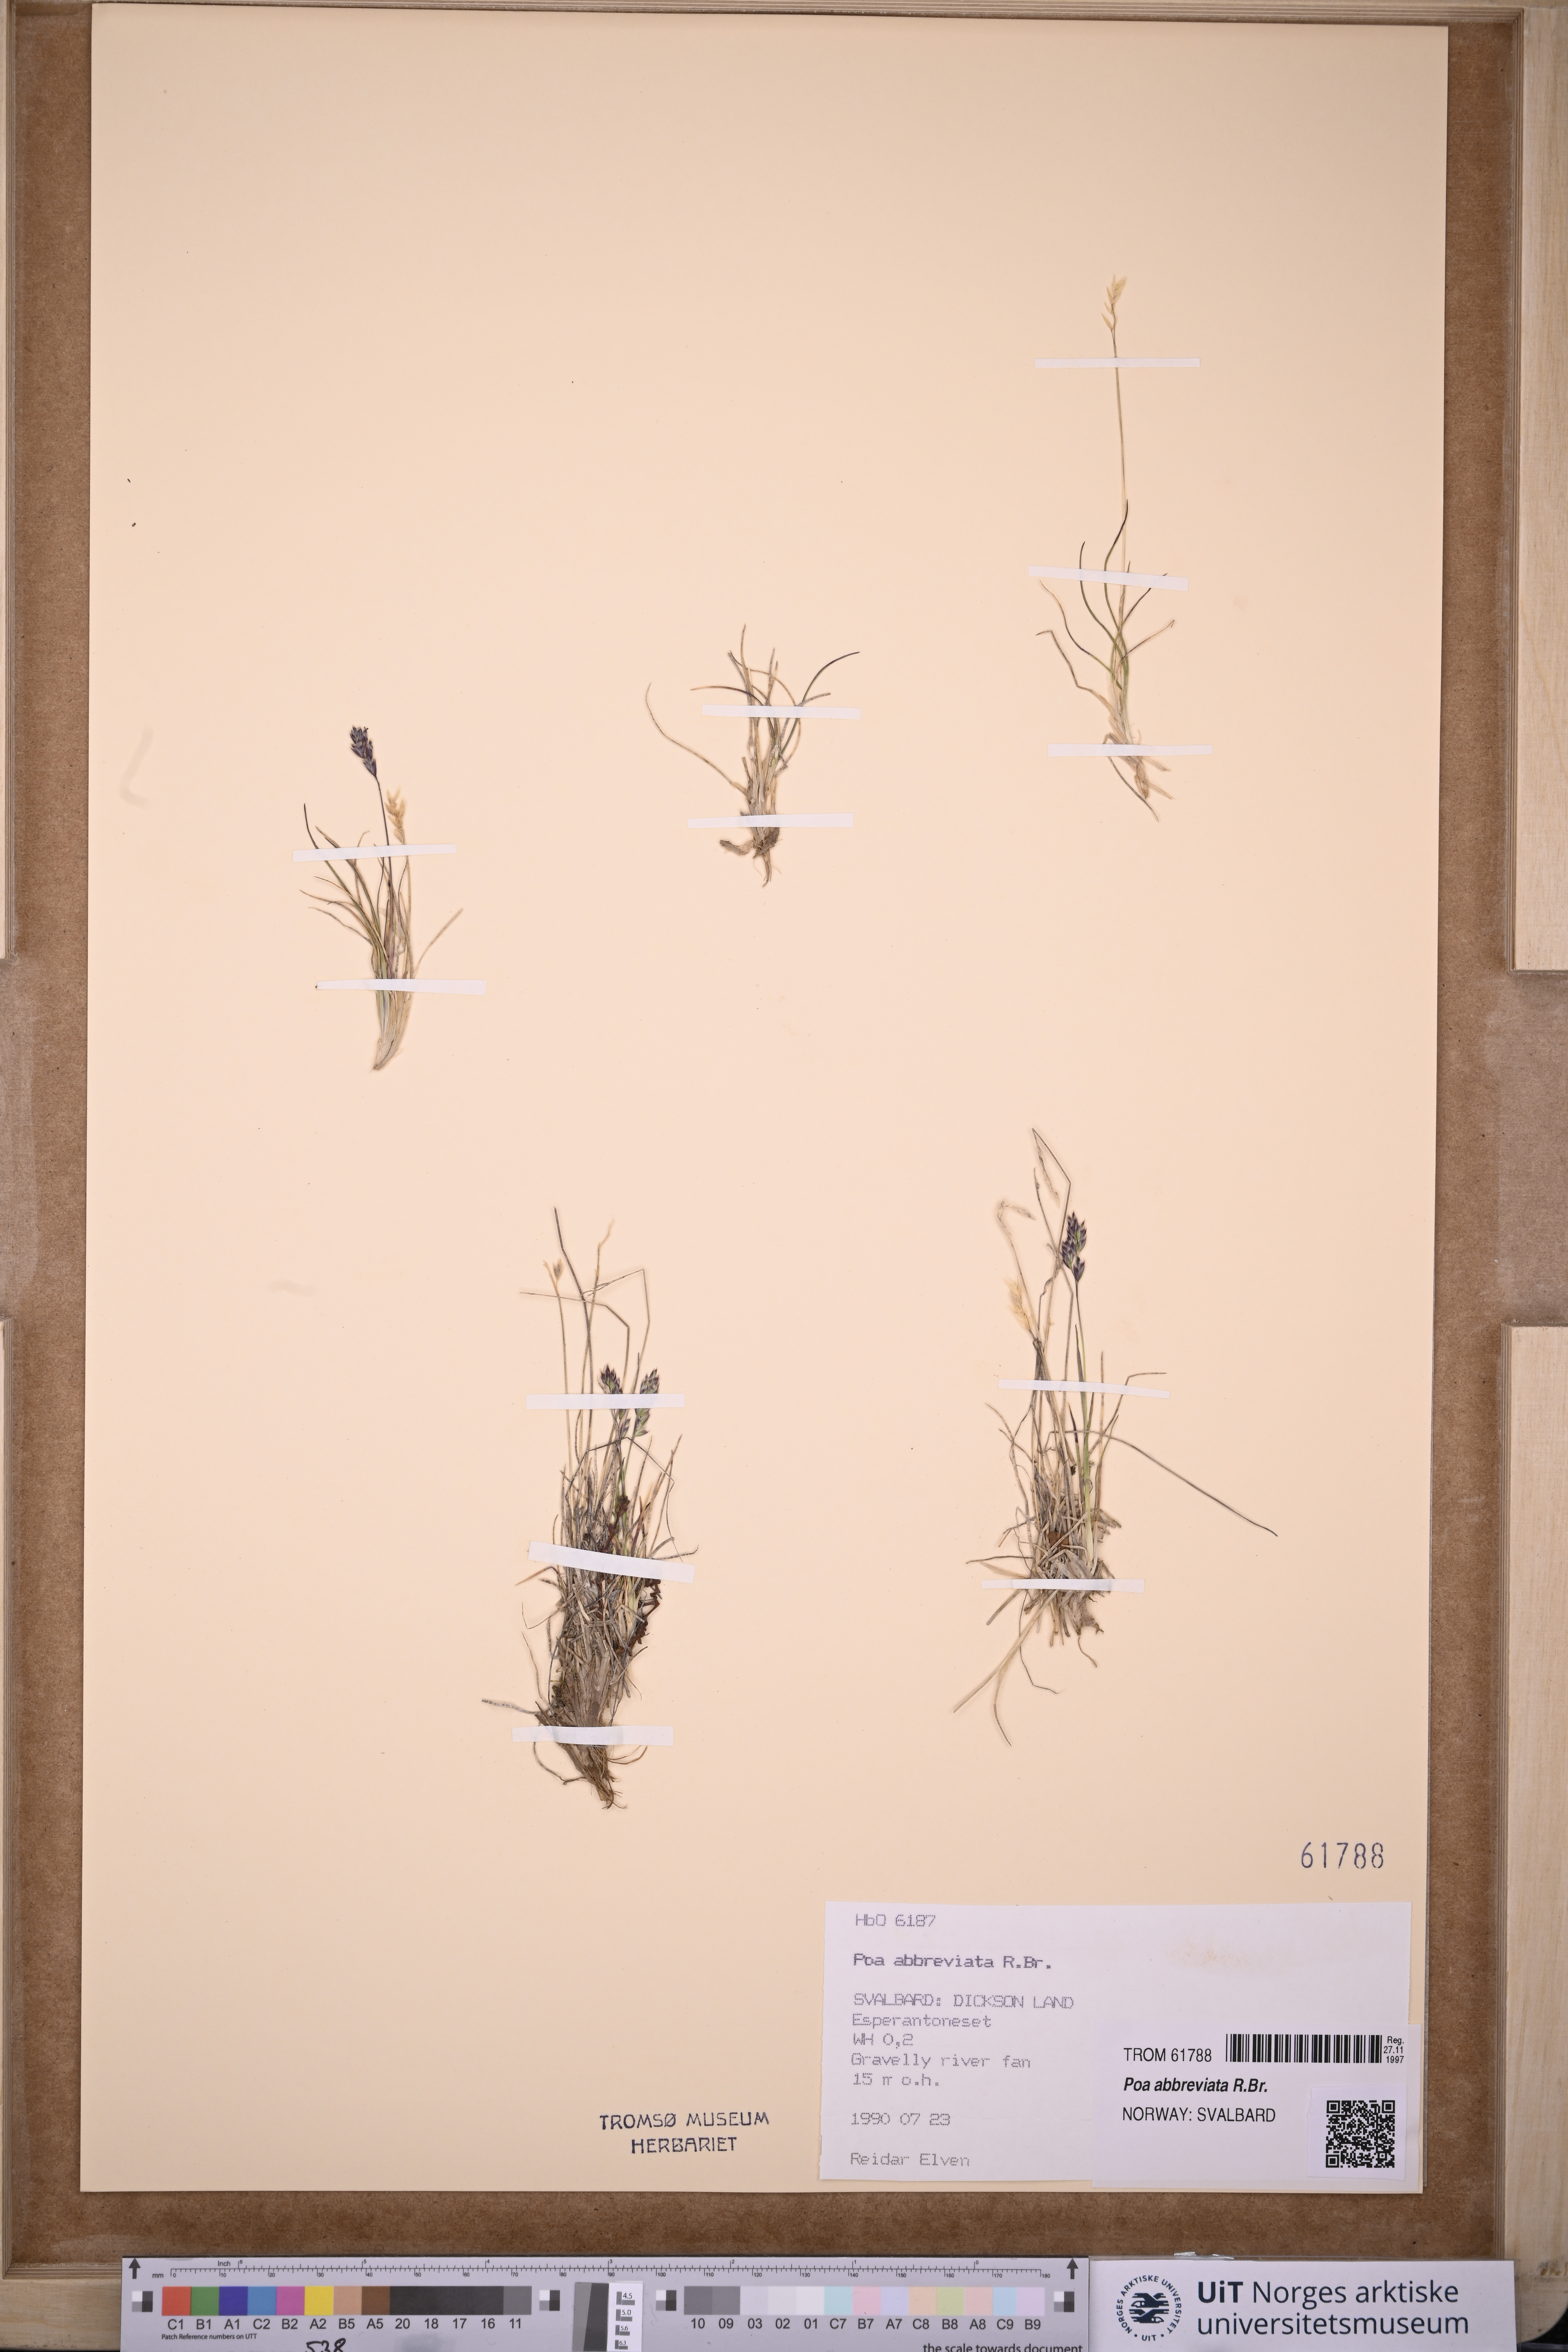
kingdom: Plantae
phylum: Tracheophyta
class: Liliopsida
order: Poales
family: Poaceae
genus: Poa
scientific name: Poa abbreviata
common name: Abbreviated bluegrass
